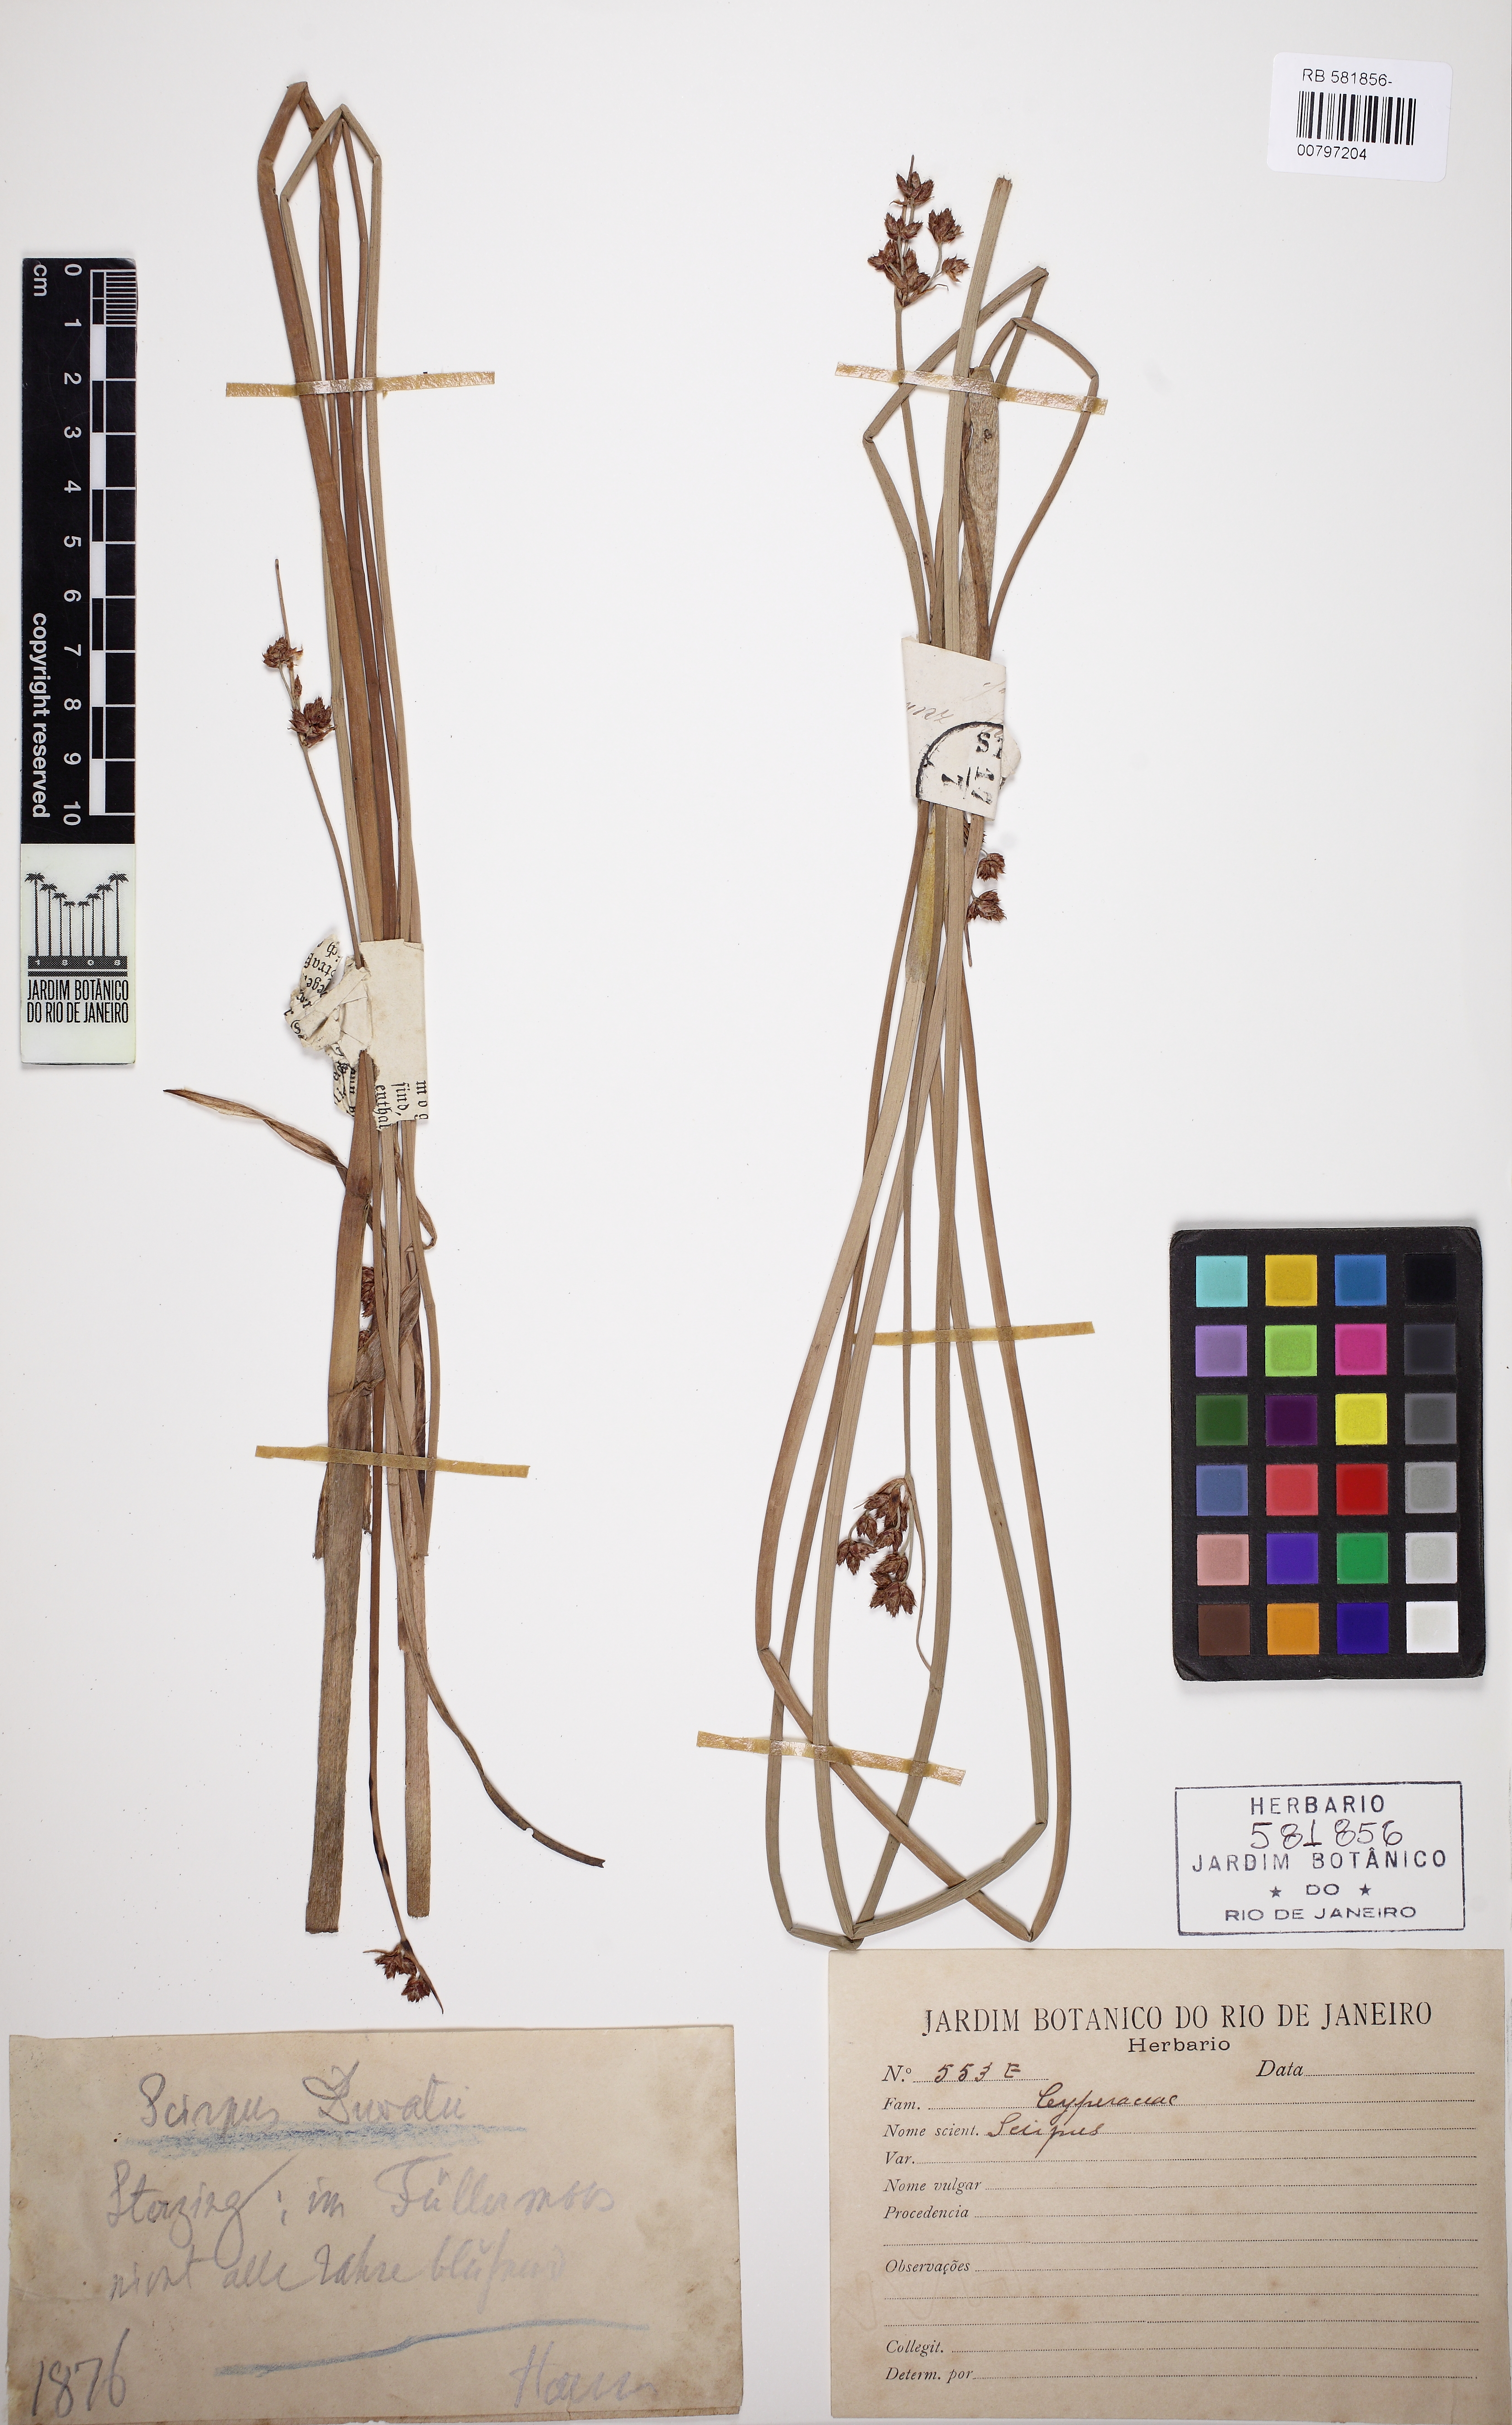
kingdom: Plantae
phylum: Tracheophyta
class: Liliopsida
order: Poales
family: Cyperaceae
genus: Scirpus
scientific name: Scirpus
